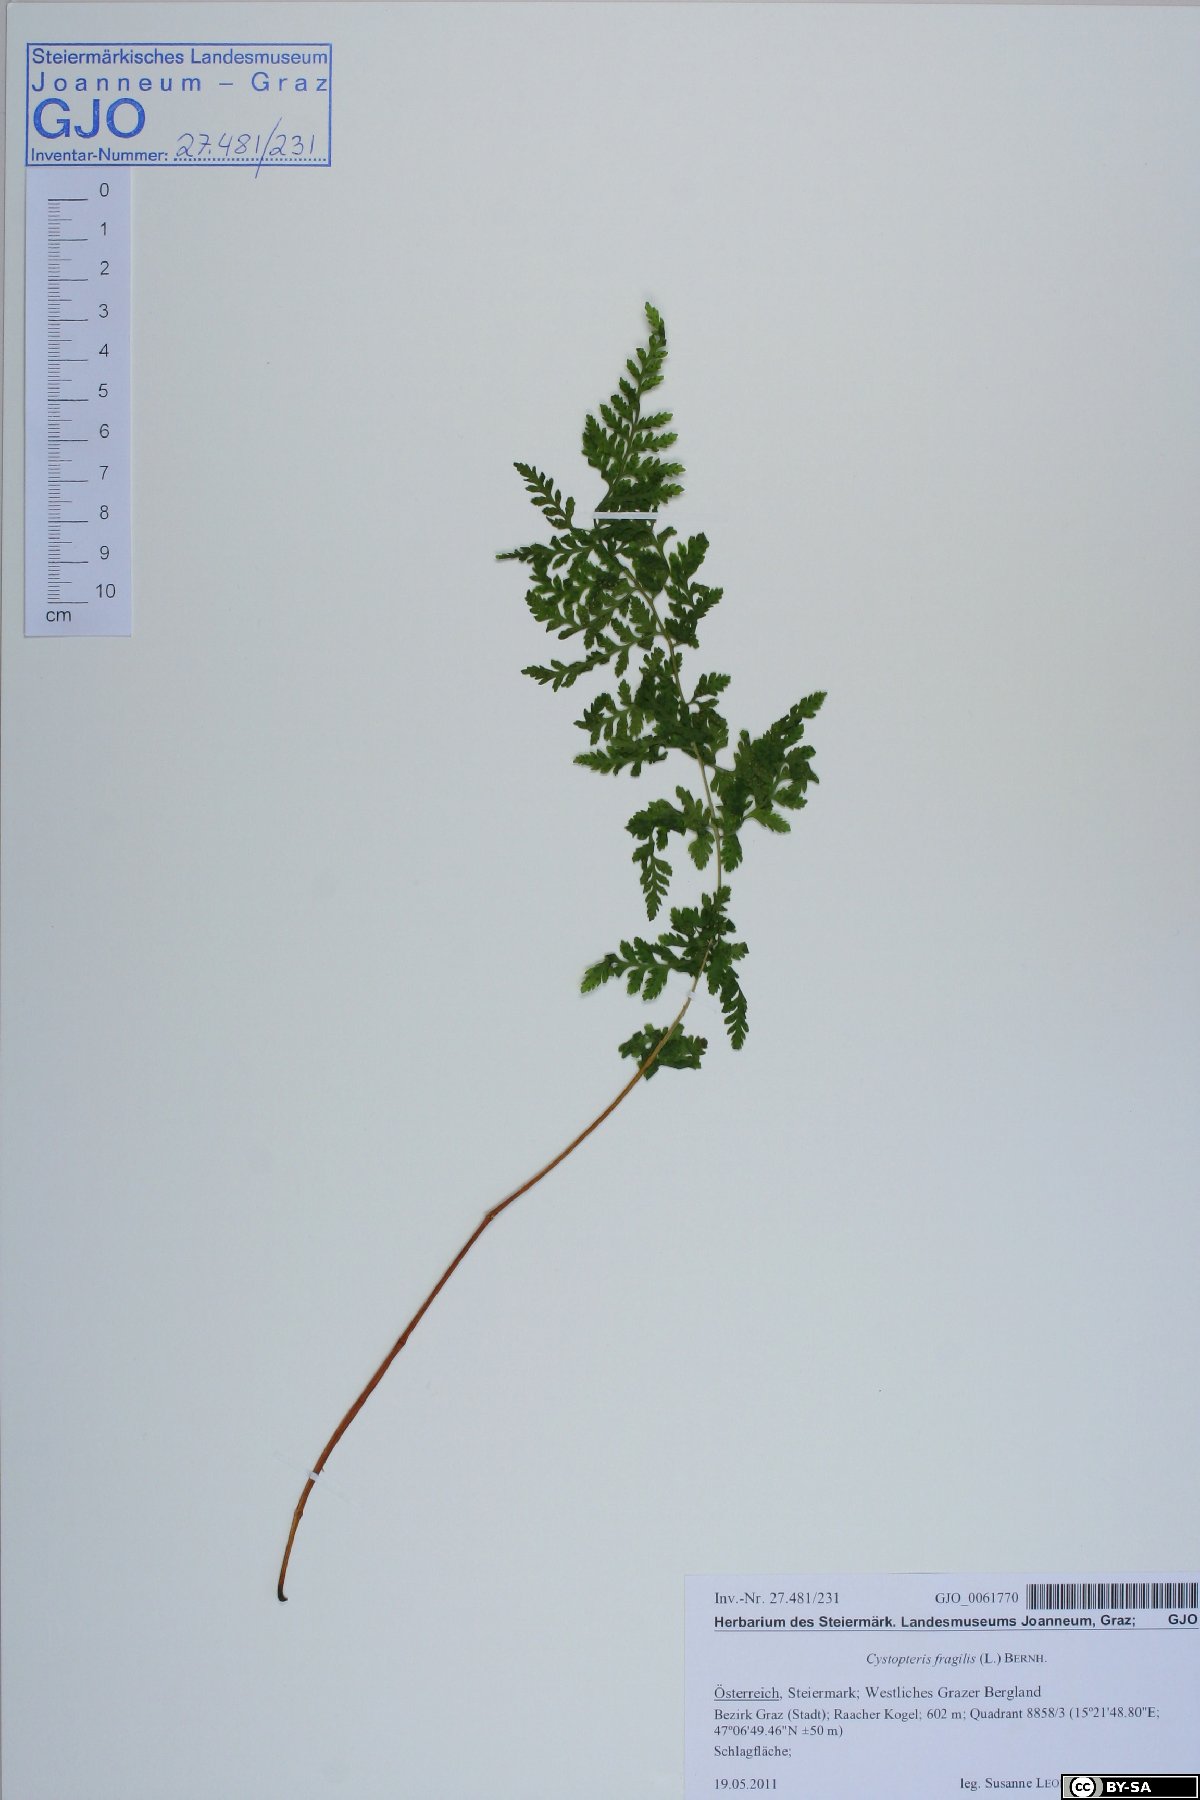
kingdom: Plantae
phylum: Tracheophyta
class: Polypodiopsida
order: Polypodiales
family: Cystopteridaceae
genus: Cystopteris
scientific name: Cystopteris fragilis
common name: Brittle bladder fern
